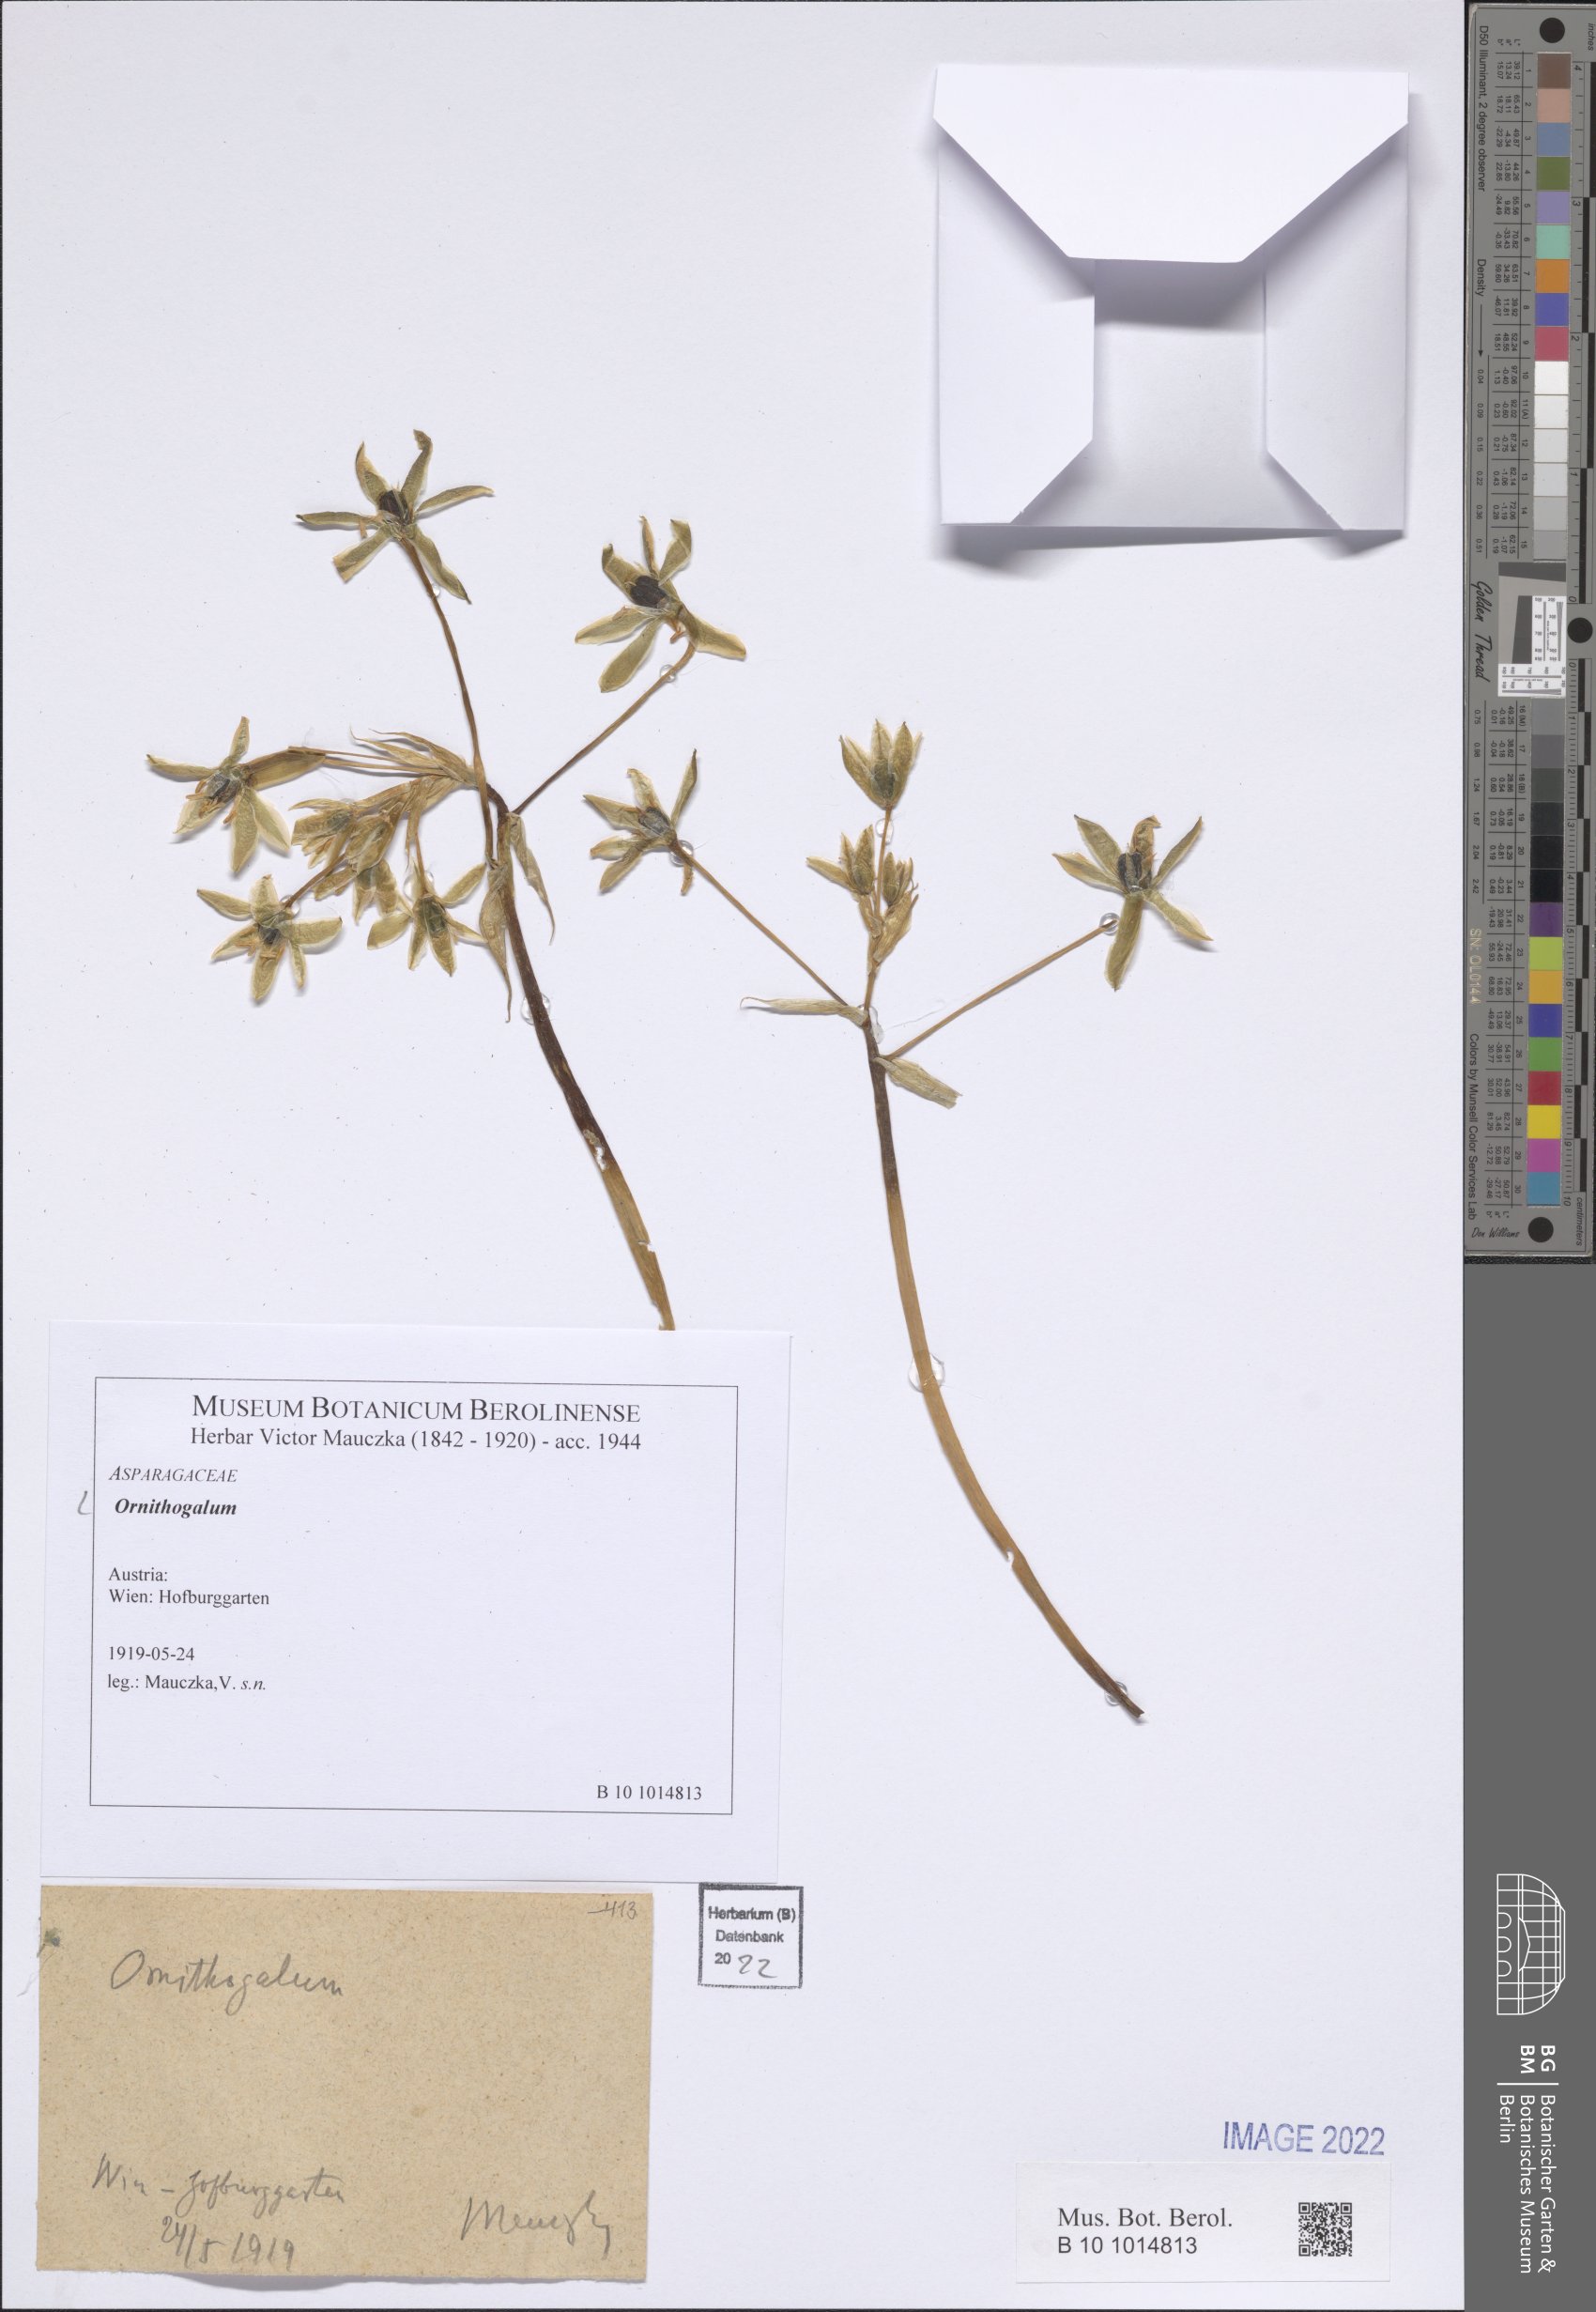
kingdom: Plantae
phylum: Tracheophyta
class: Liliopsida
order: Asparagales
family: Asparagaceae
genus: Ornithogalum
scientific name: Ornithogalum
